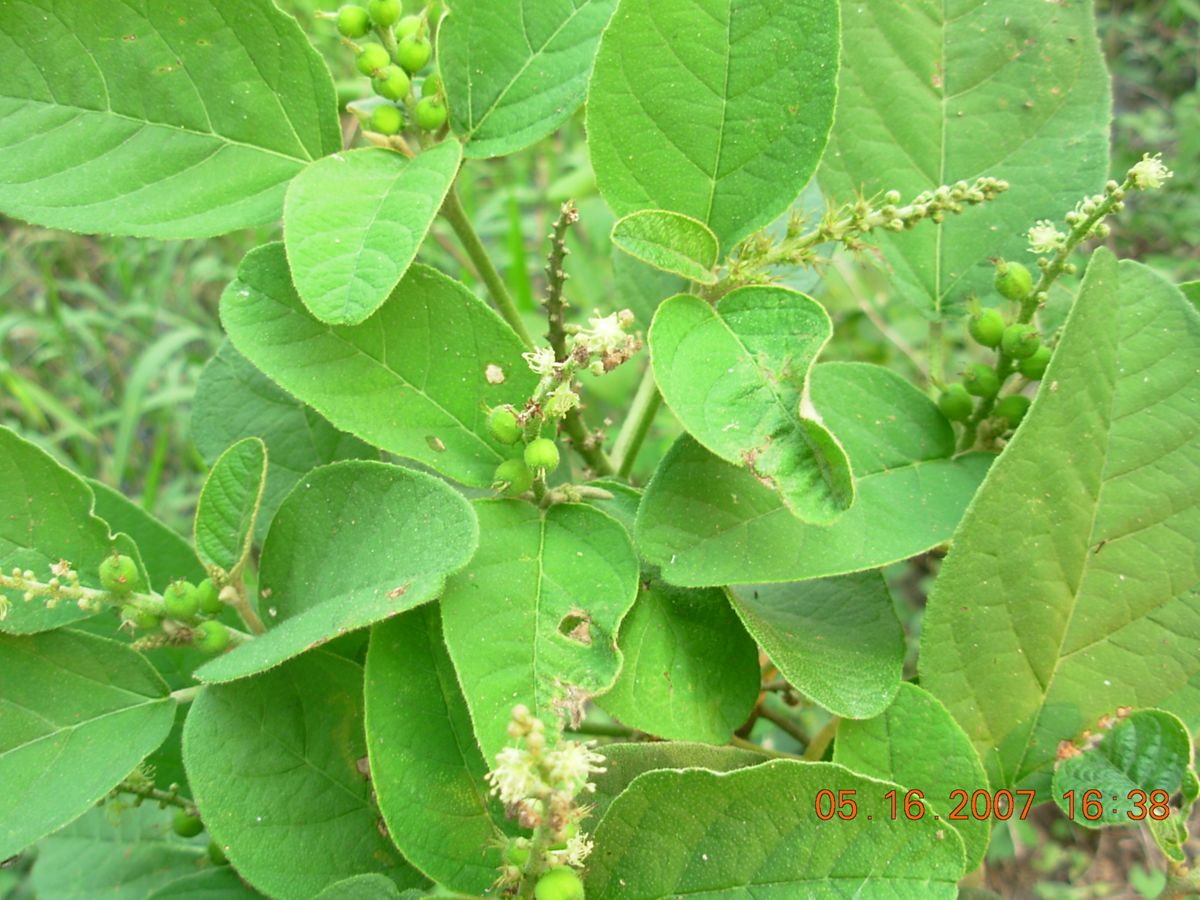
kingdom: Plantae
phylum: Tracheophyta
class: Magnoliopsida
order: Malpighiales
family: Euphorbiaceae
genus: Croton
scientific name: Croton payaquensis
